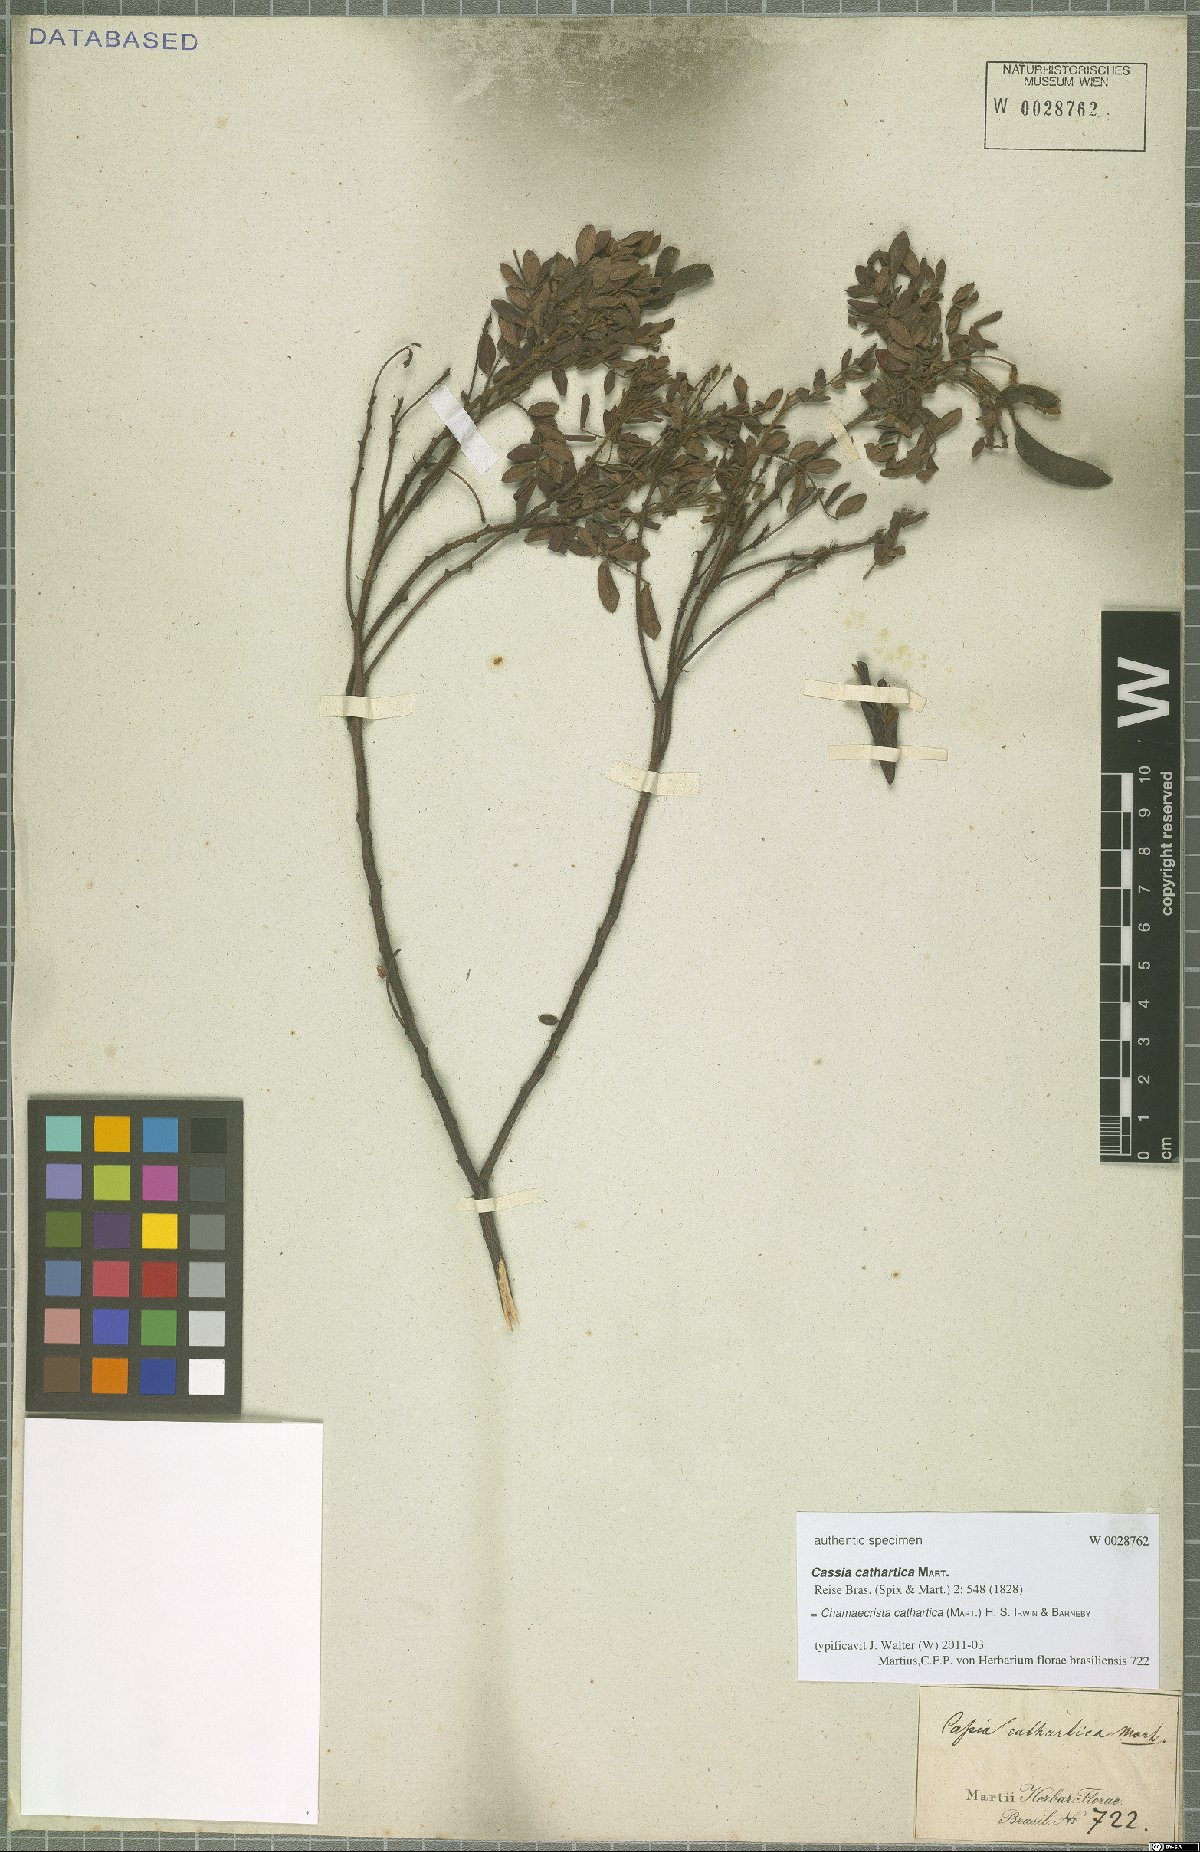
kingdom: Plantae
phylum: Tracheophyta
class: Magnoliopsida
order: Fabales
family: Fabaceae
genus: Chamaecrista
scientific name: Chamaecrista cathartica
